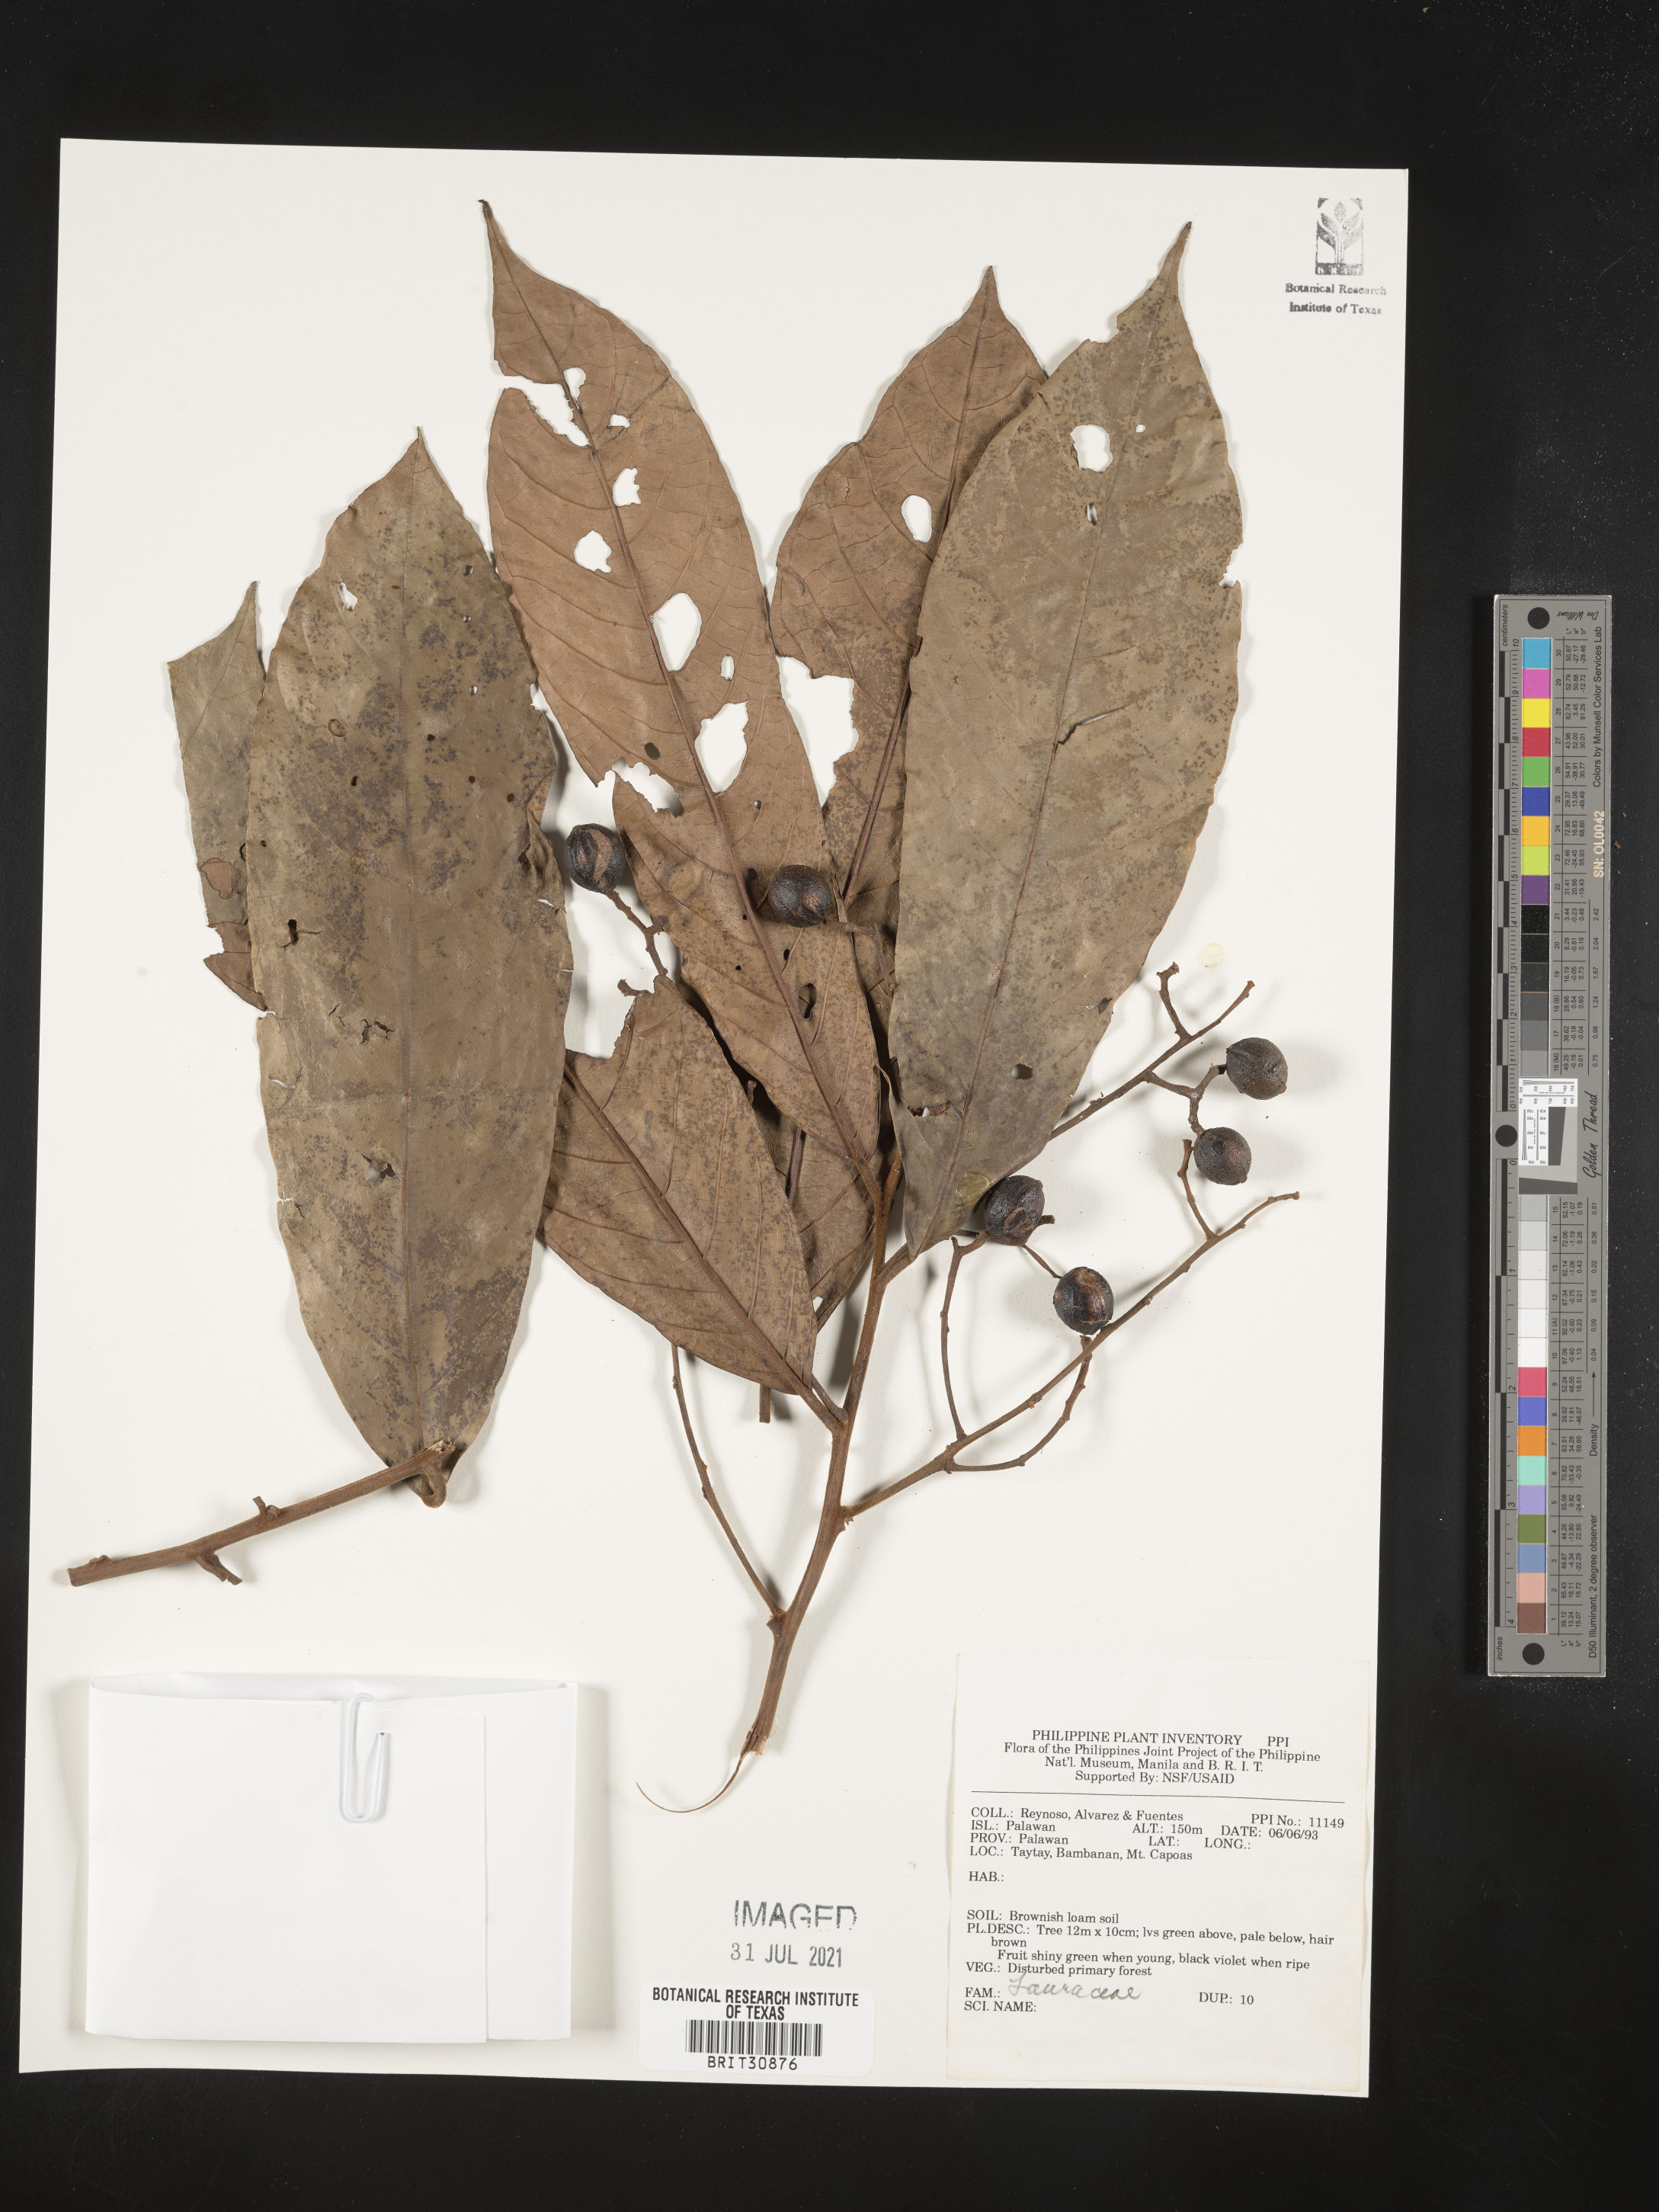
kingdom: Plantae
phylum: Tracheophyta
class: Magnoliopsida
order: Laurales
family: Lauraceae
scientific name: Lauraceae
